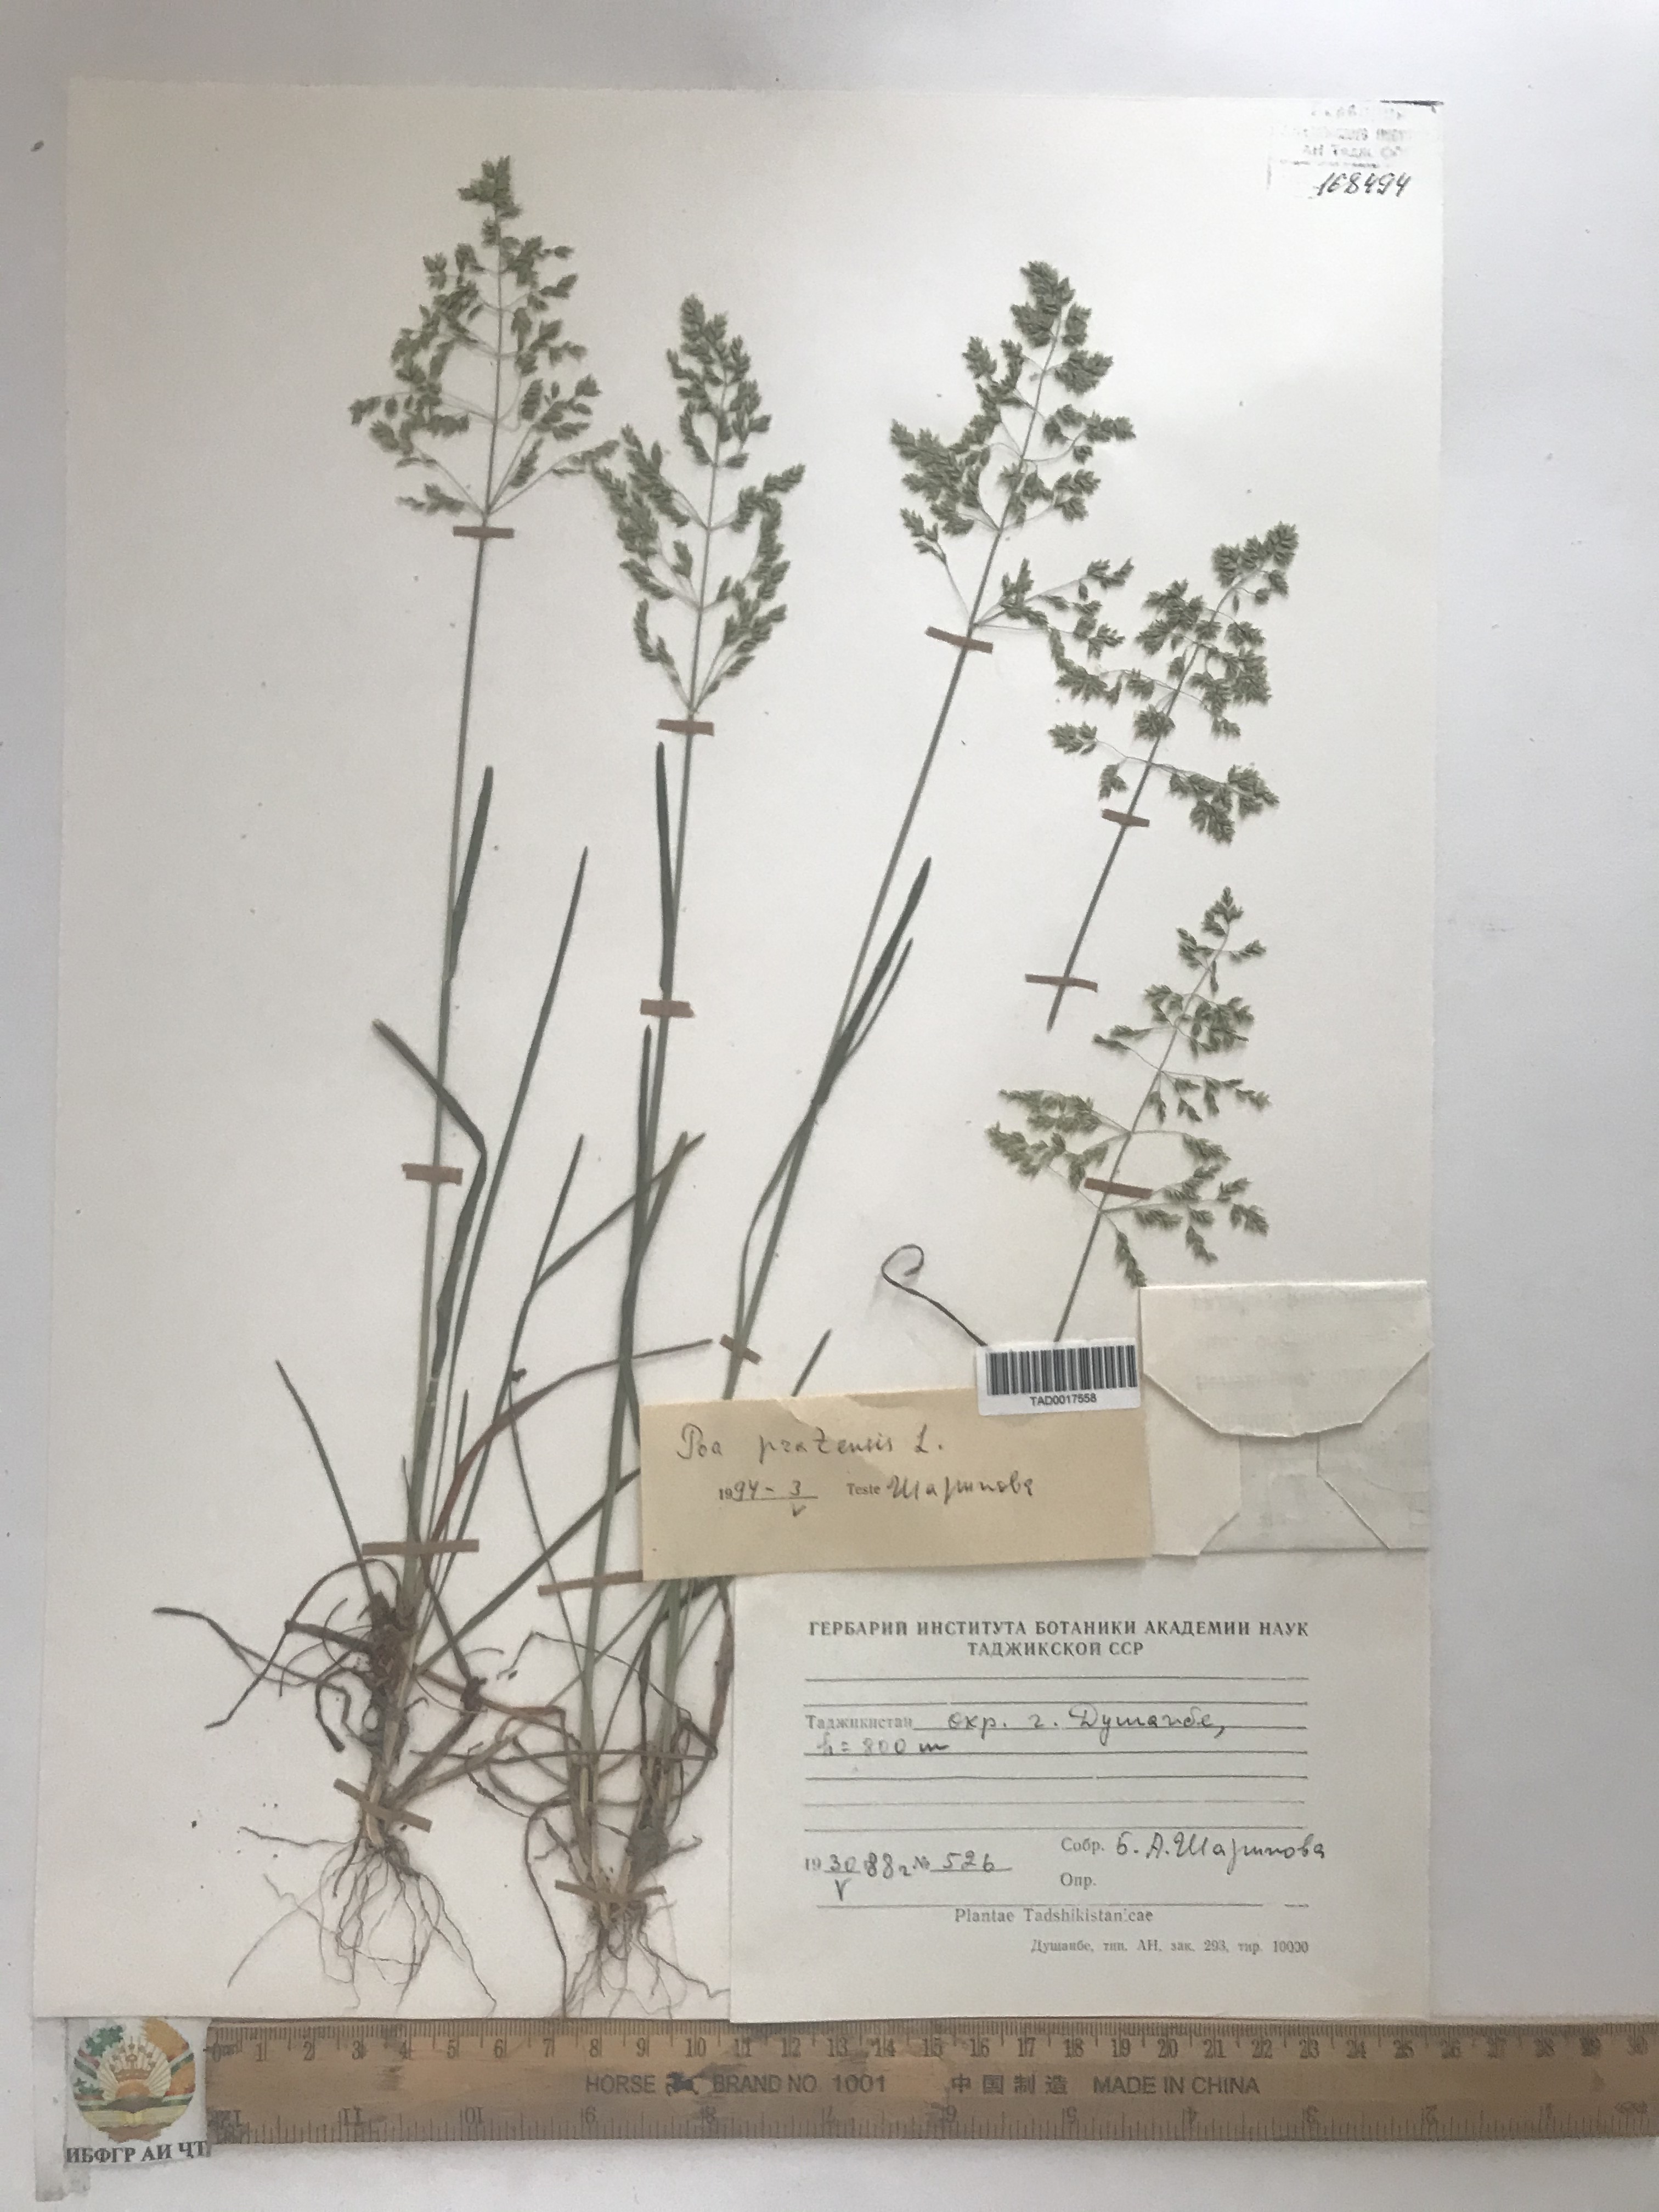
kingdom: Plantae
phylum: Tracheophyta
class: Liliopsida
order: Poales
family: Poaceae
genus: Poa
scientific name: Poa pratensis
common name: Kentucky bluegrass
